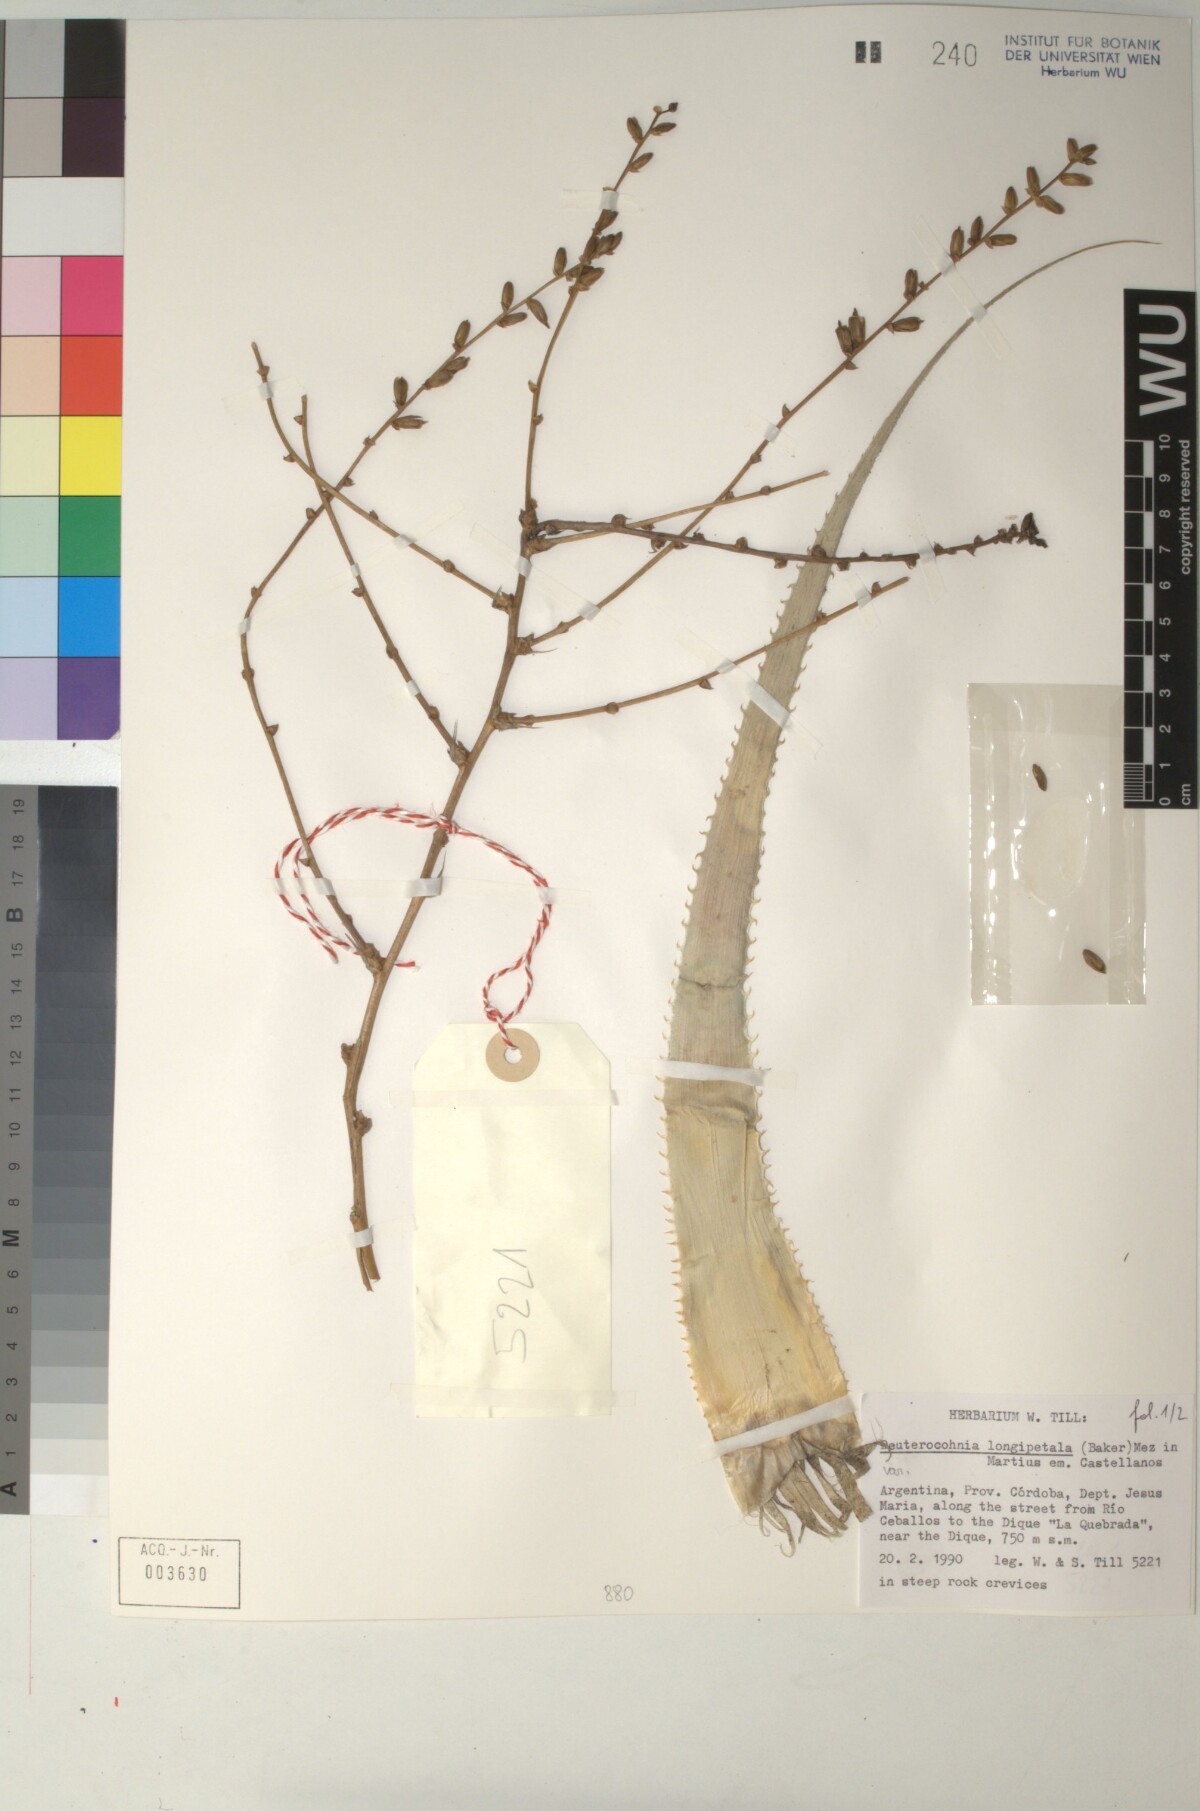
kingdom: Plantae
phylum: Tracheophyta
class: Liliopsida
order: Poales
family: Bromeliaceae
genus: Deuterocohnia
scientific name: Deuterocohnia longipetala
